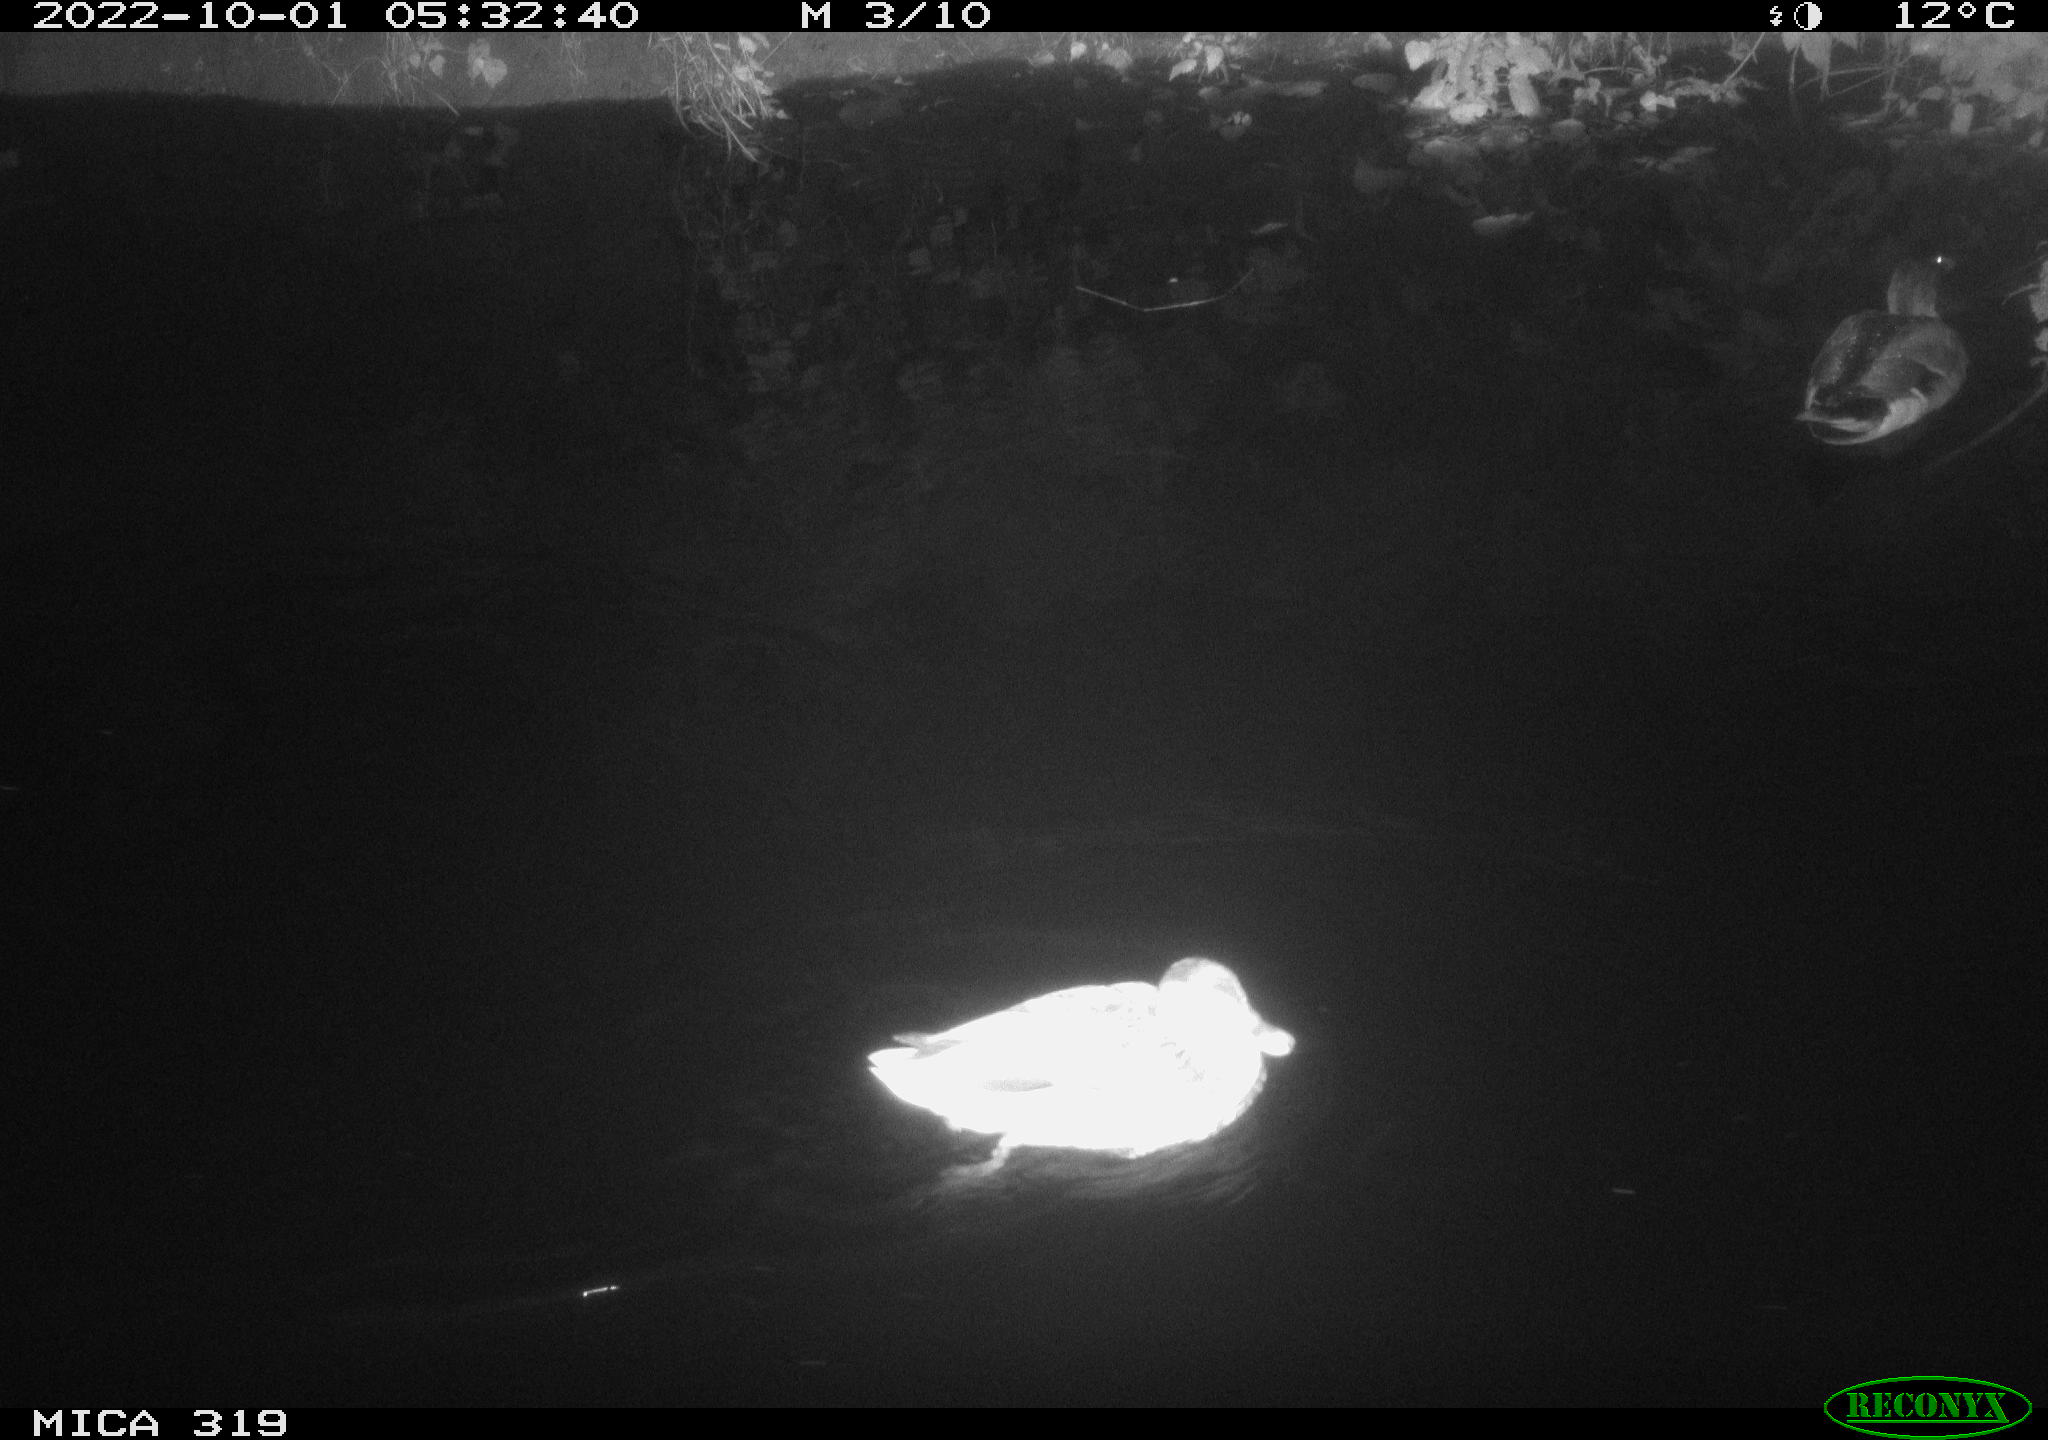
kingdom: Animalia
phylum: Chordata
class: Aves
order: Anseriformes
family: Anatidae
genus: Anas
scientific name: Anas
